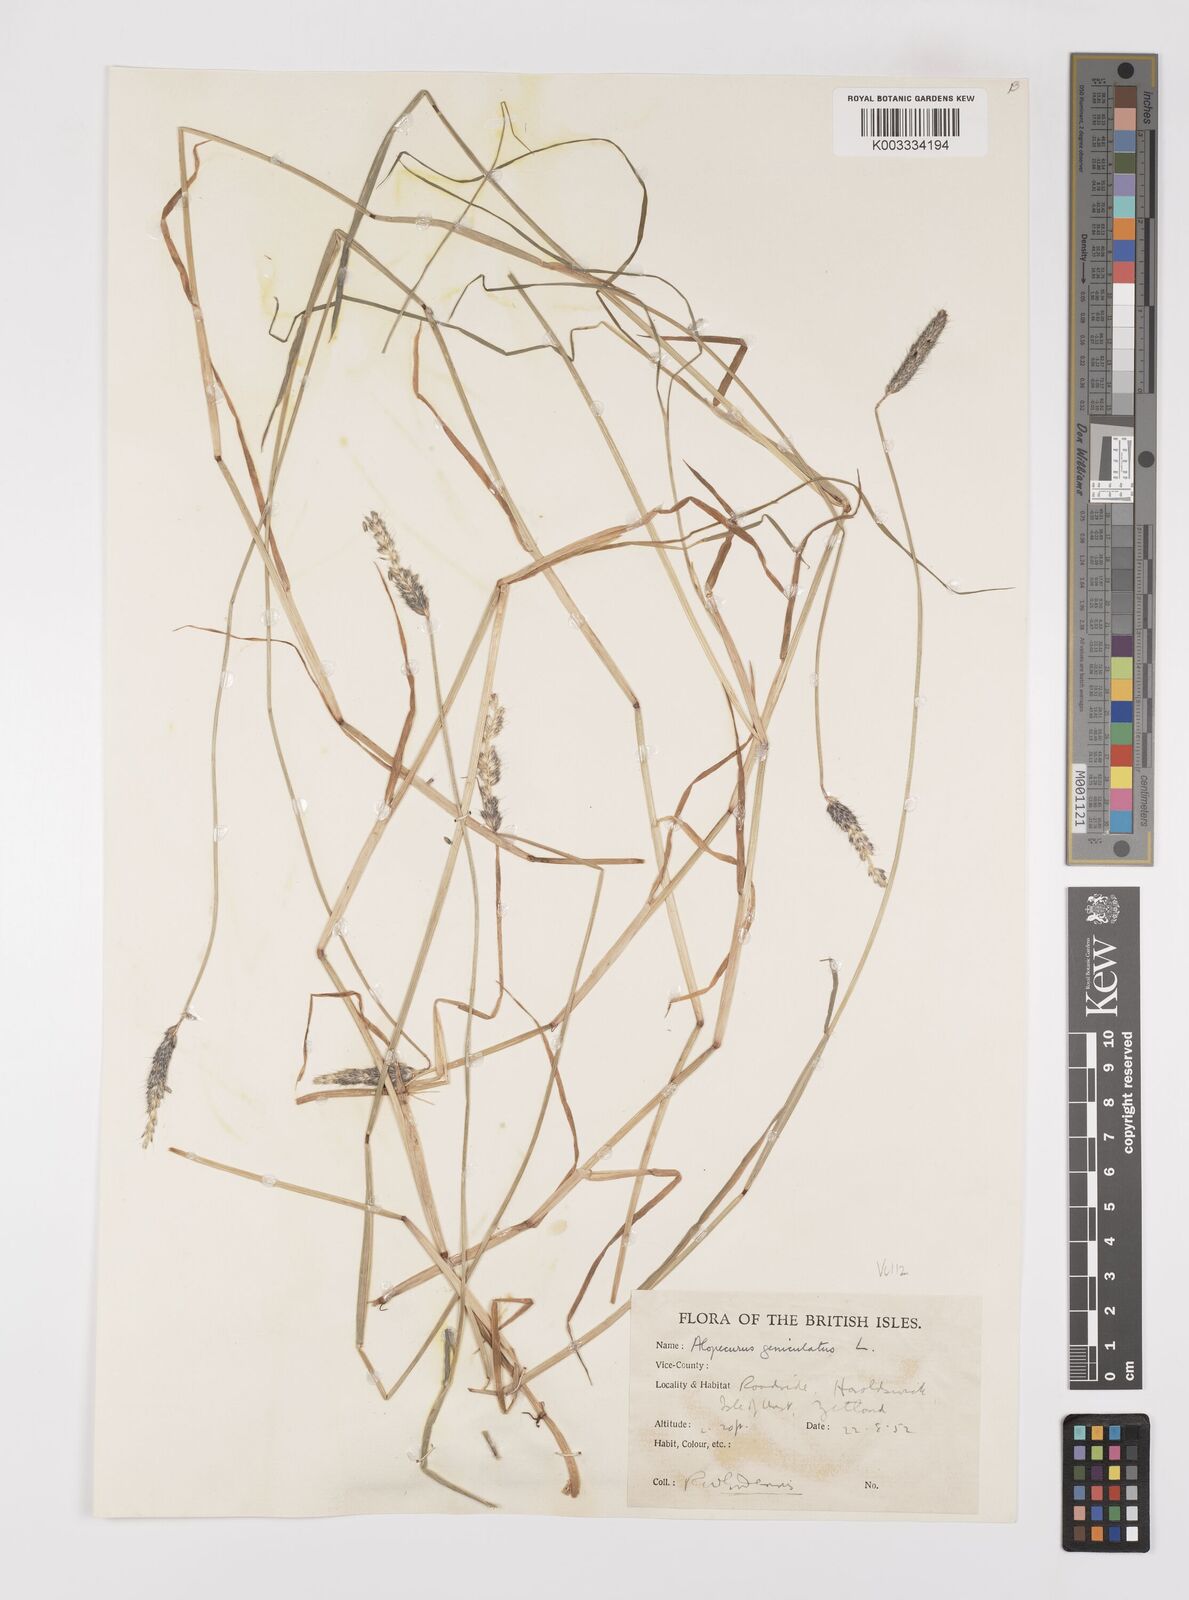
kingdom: Plantae
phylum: Tracheophyta
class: Liliopsida
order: Poales
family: Poaceae
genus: Alopecurus
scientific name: Alopecurus geniculatus
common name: Water foxtail
